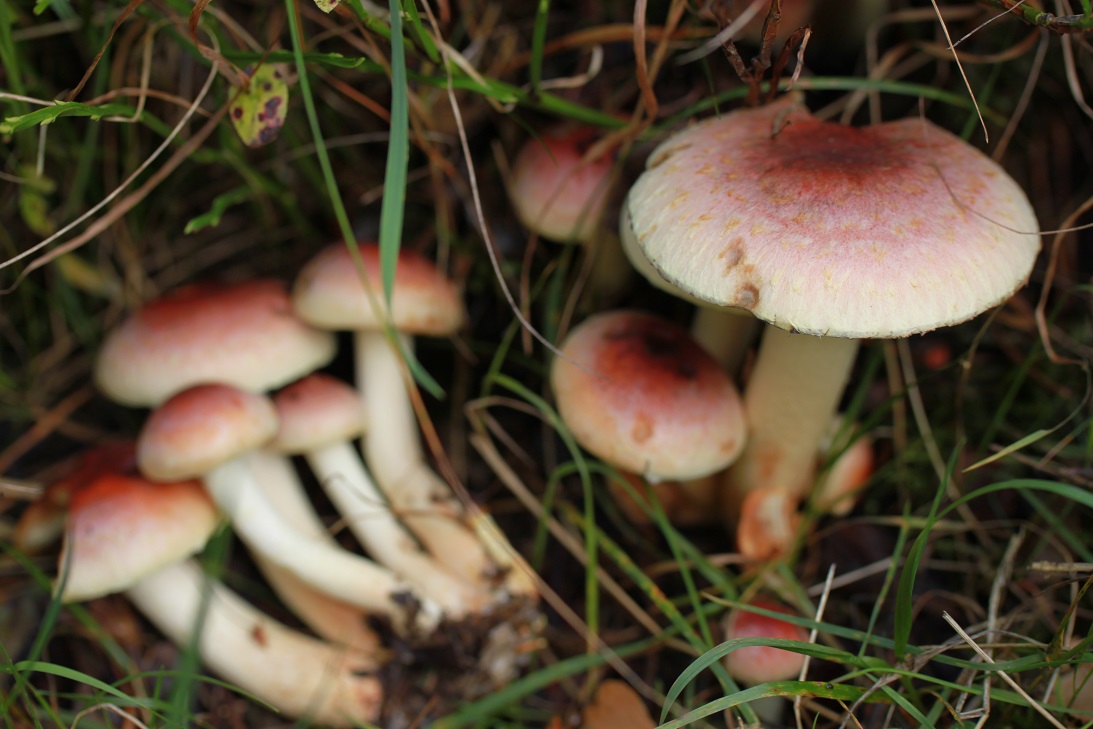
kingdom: Fungi
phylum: Basidiomycota
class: Agaricomycetes
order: Agaricales
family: Strophariaceae
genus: Hypholoma
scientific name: Hypholoma lateritium
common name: teglrød svovlhat
